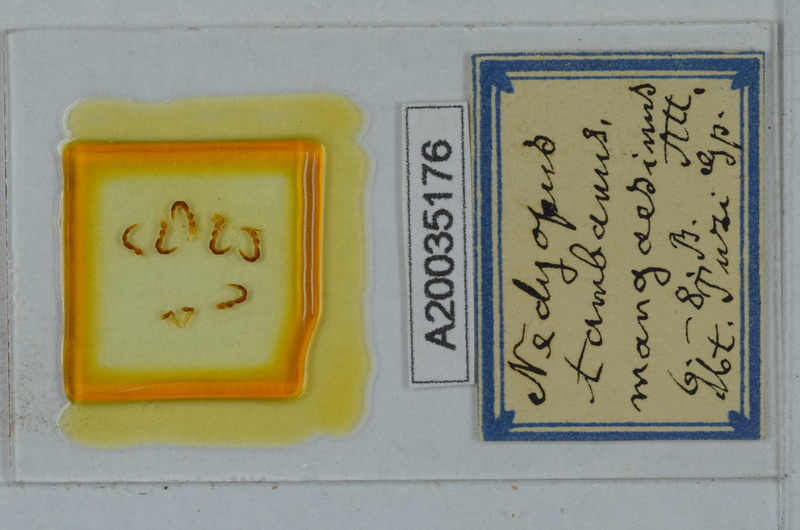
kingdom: Animalia
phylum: Arthropoda
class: Diplopoda
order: Polydesmida
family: Paradoxosomatidae
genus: Nedyopus
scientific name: Nedyopus tambanus
